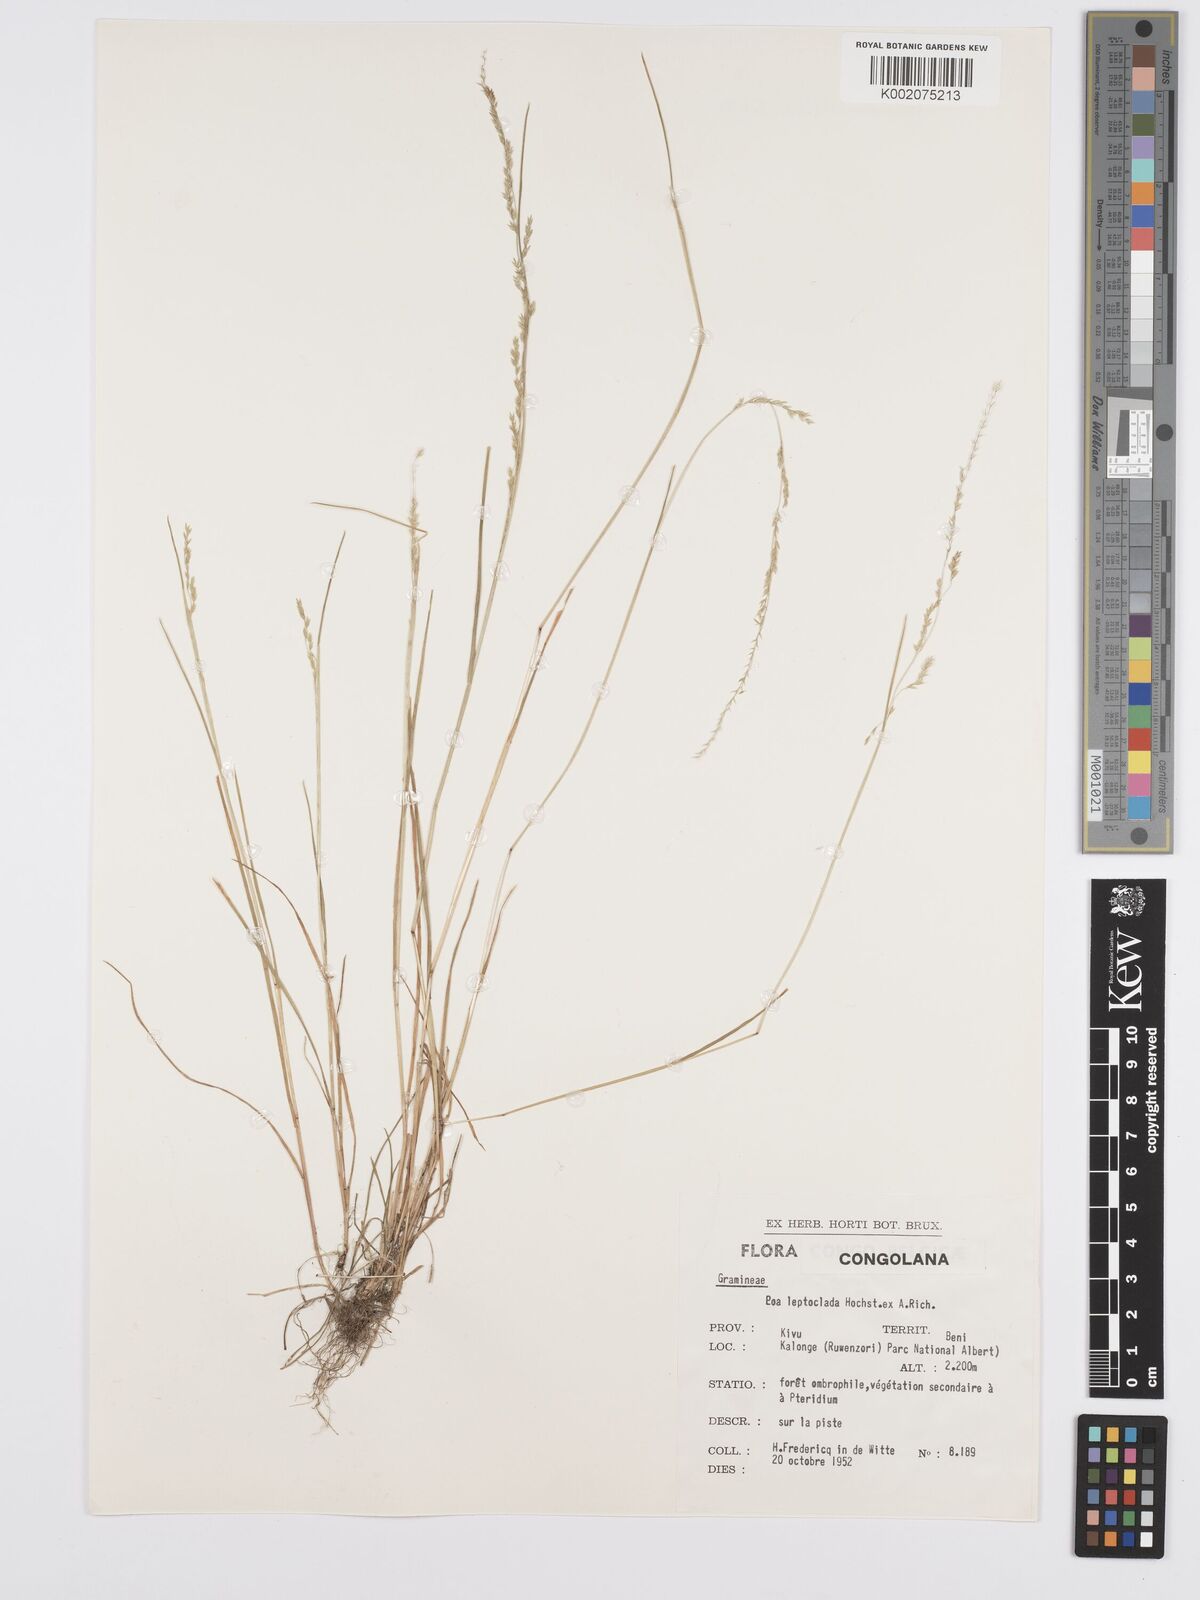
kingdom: Plantae
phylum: Tracheophyta
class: Liliopsida
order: Poales
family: Poaceae
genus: Poa
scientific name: Poa leptoclada
